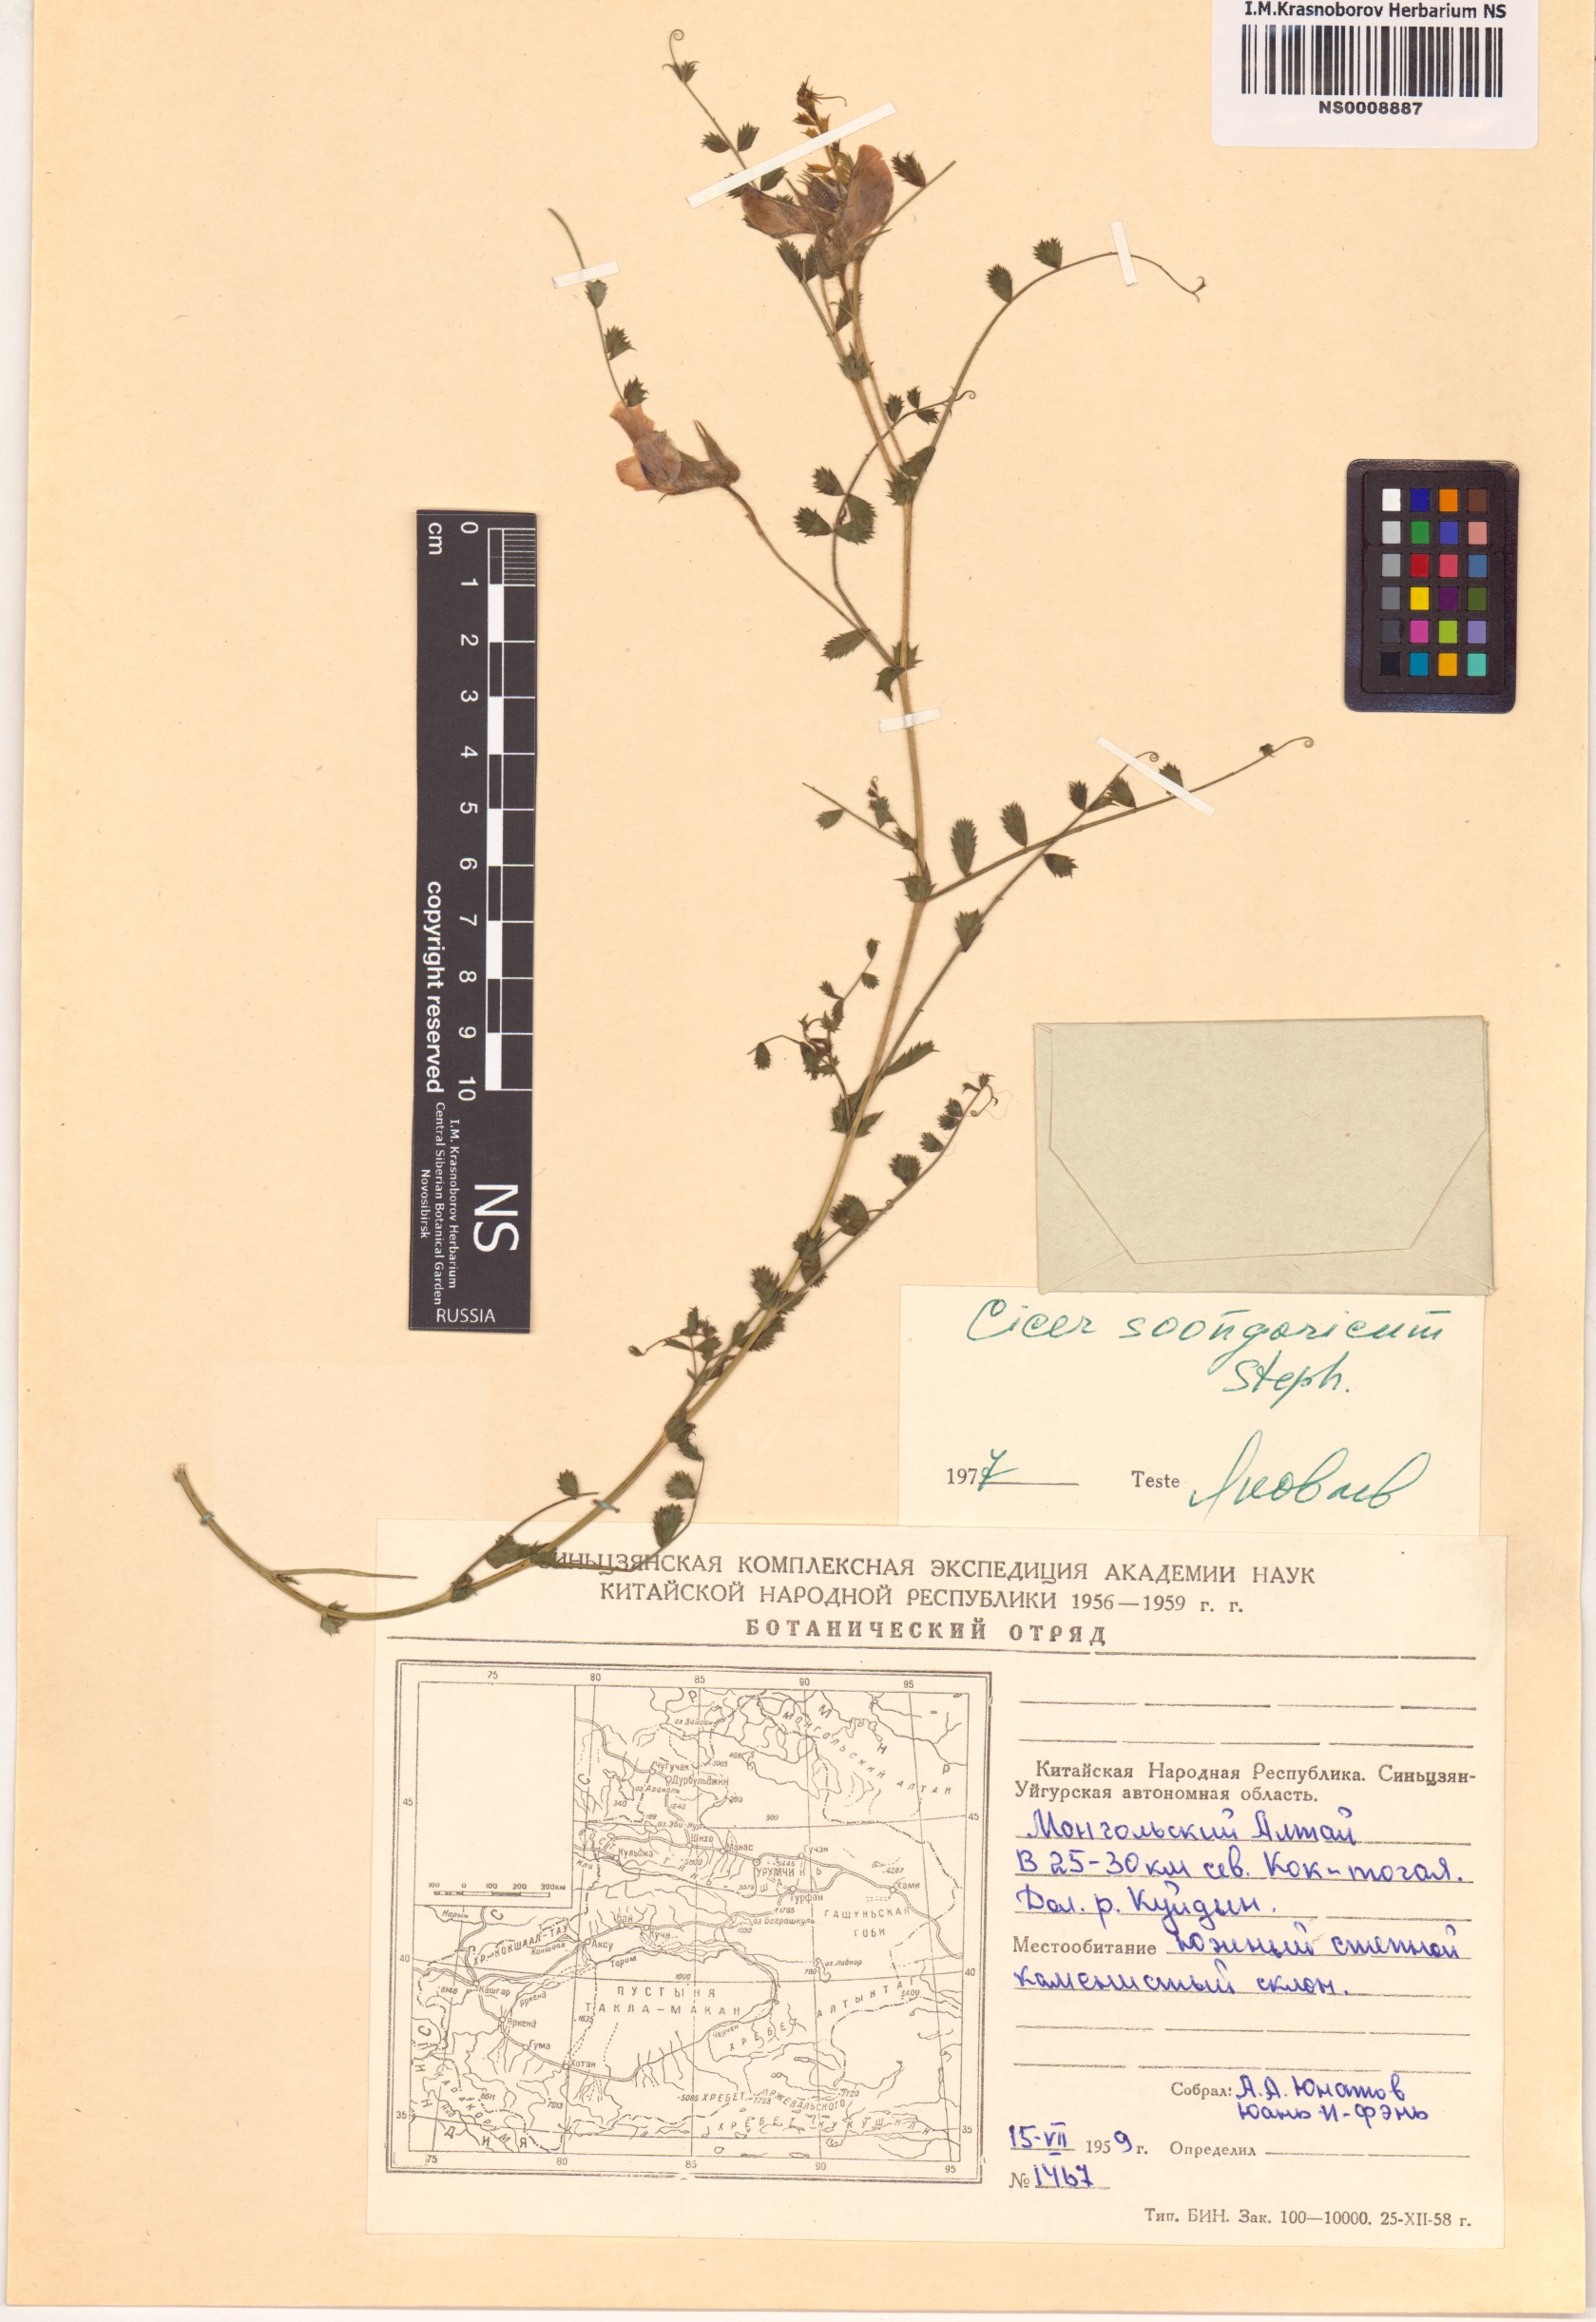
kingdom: Plantae
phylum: Tracheophyta
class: Magnoliopsida
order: Fabales
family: Fabaceae
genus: Cicer
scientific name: Cicer songaricum
